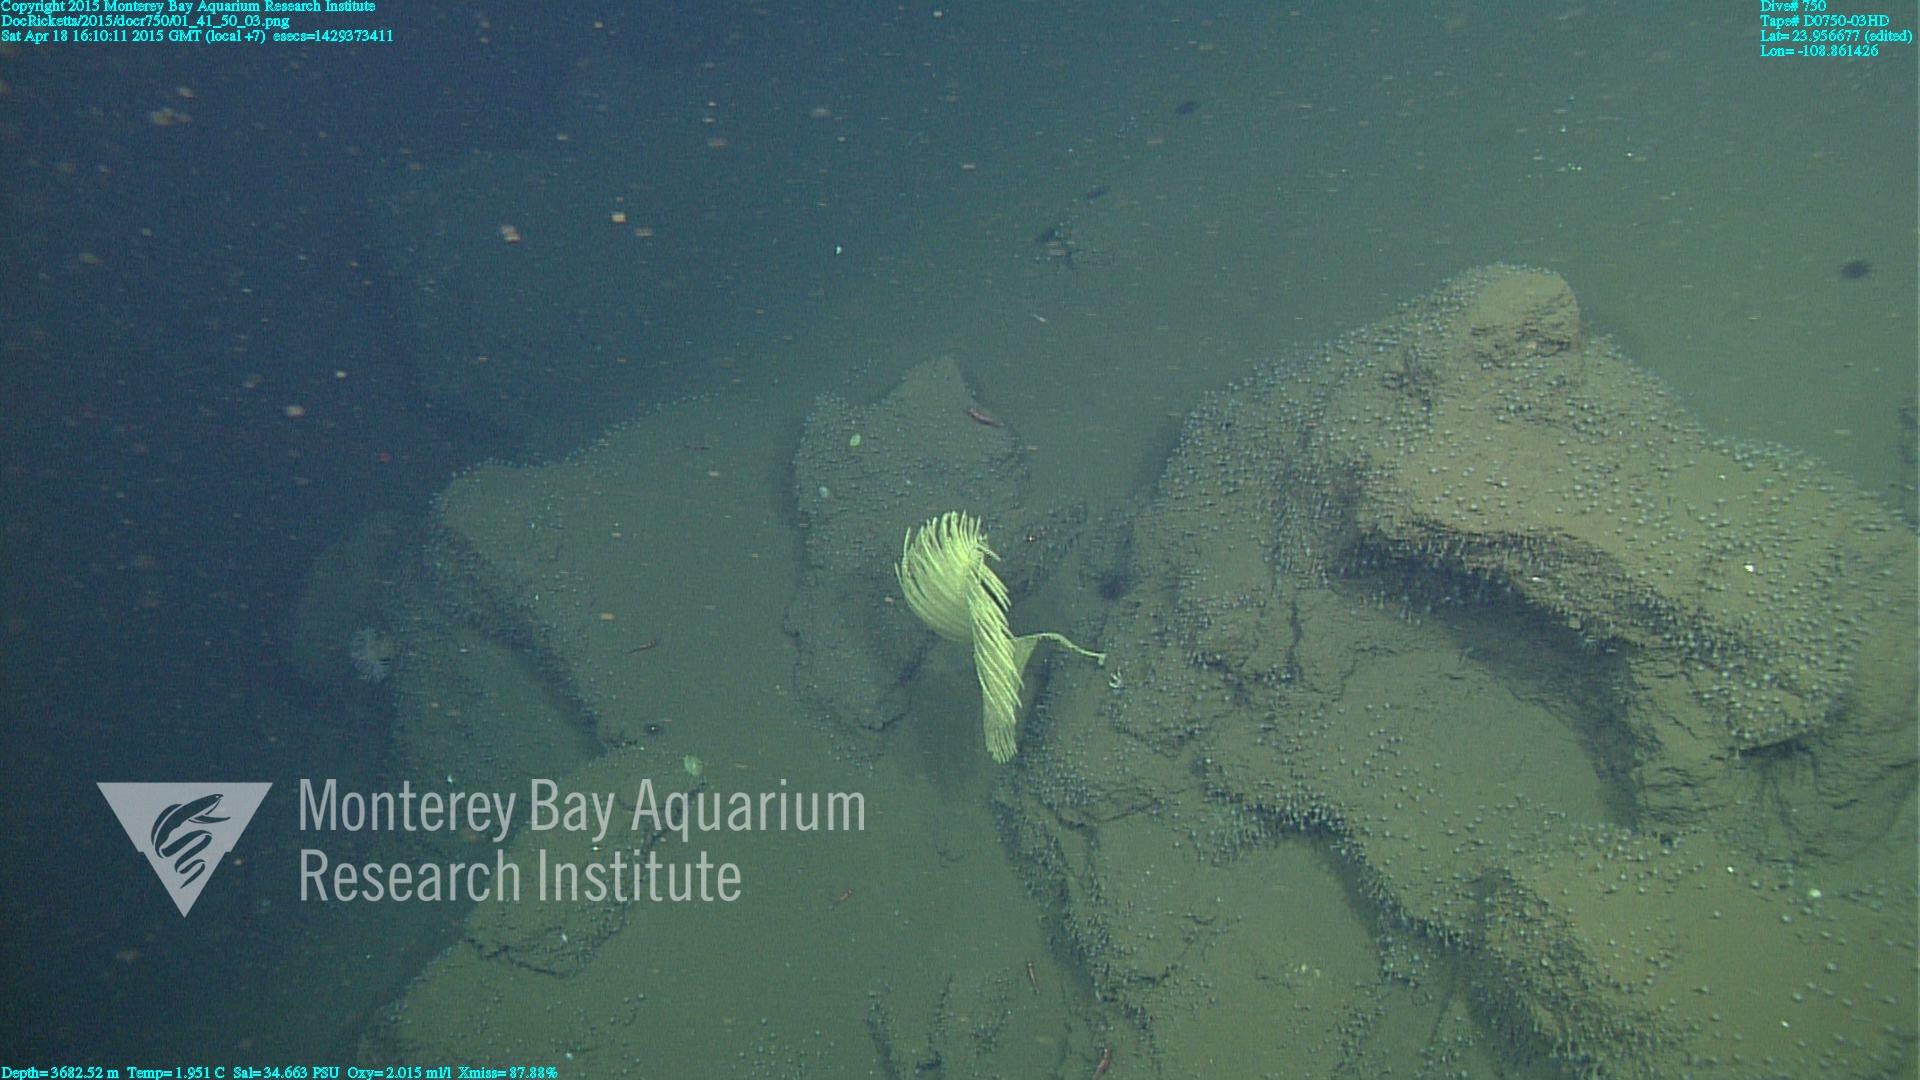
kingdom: Animalia
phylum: Cnidaria
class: Anthozoa
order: Antipatharia
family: Schizopathidae
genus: Bathypathes
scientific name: Bathypathes
